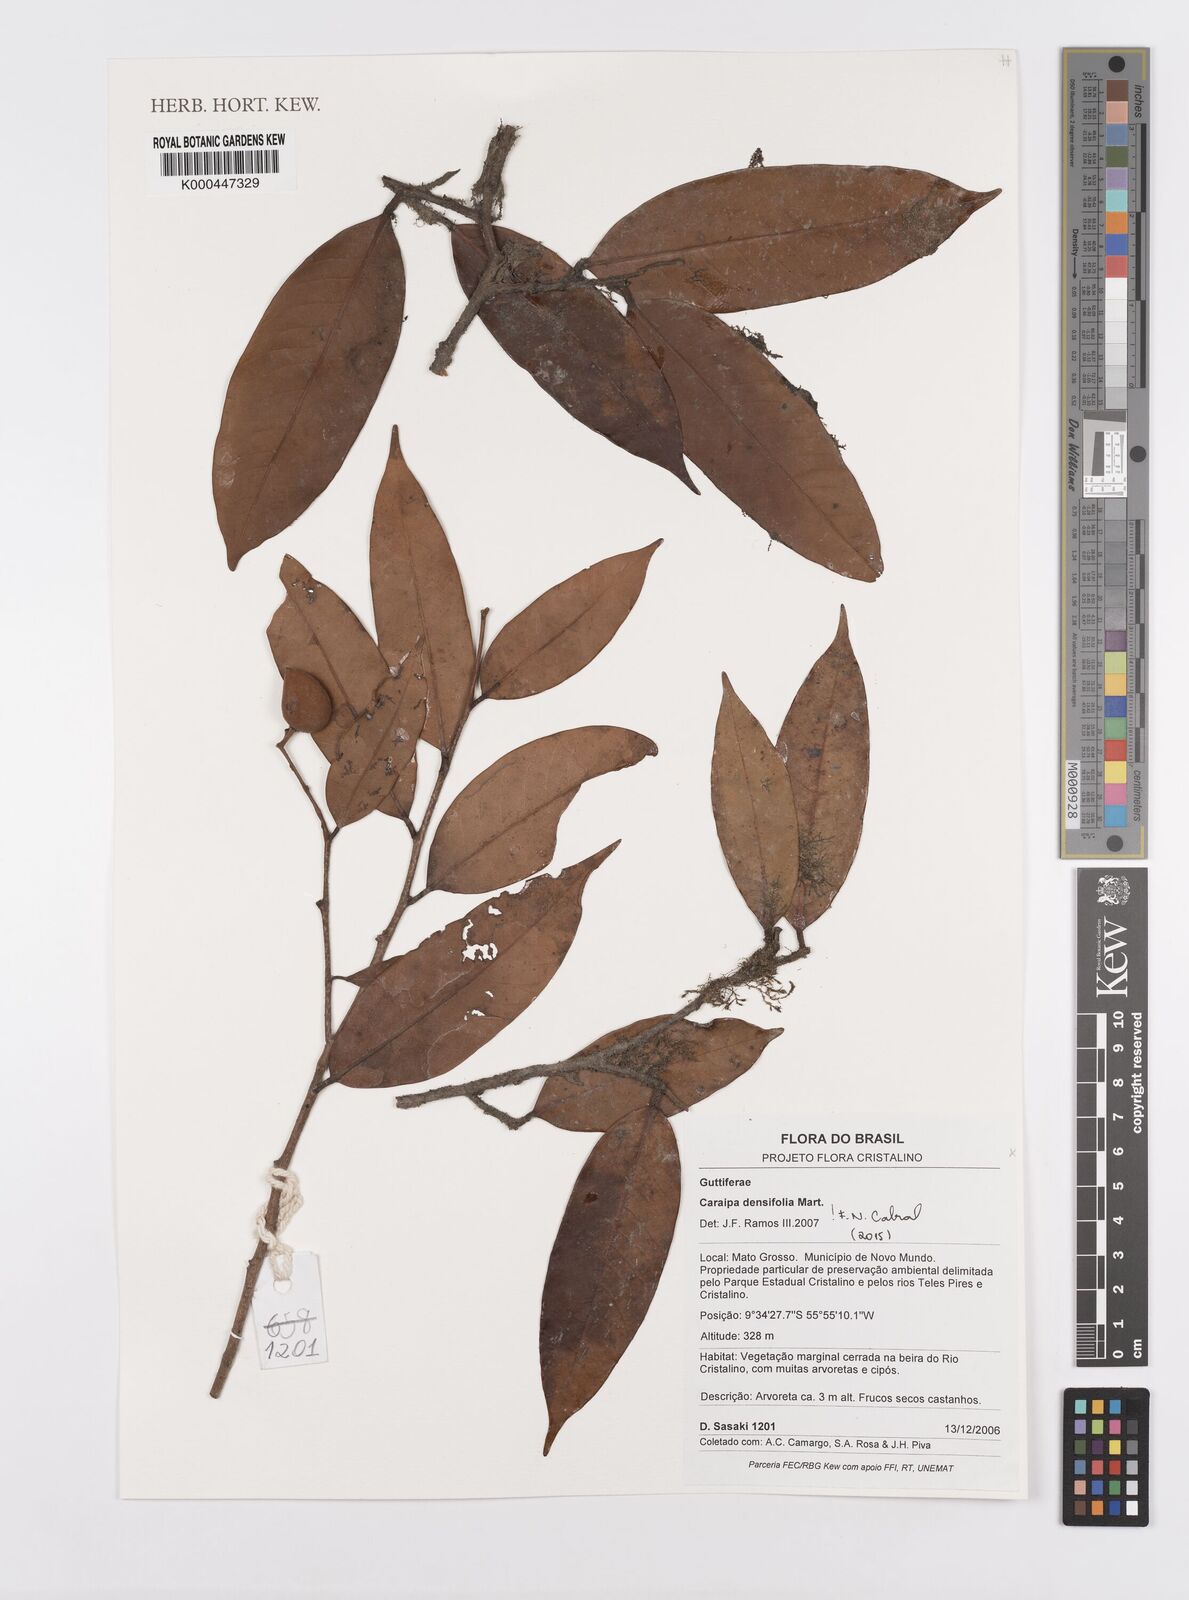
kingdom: Plantae
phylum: Tracheophyta
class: Magnoliopsida
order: Malpighiales
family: Calophyllaceae
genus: Caraipa
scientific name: Caraipa densifolia
